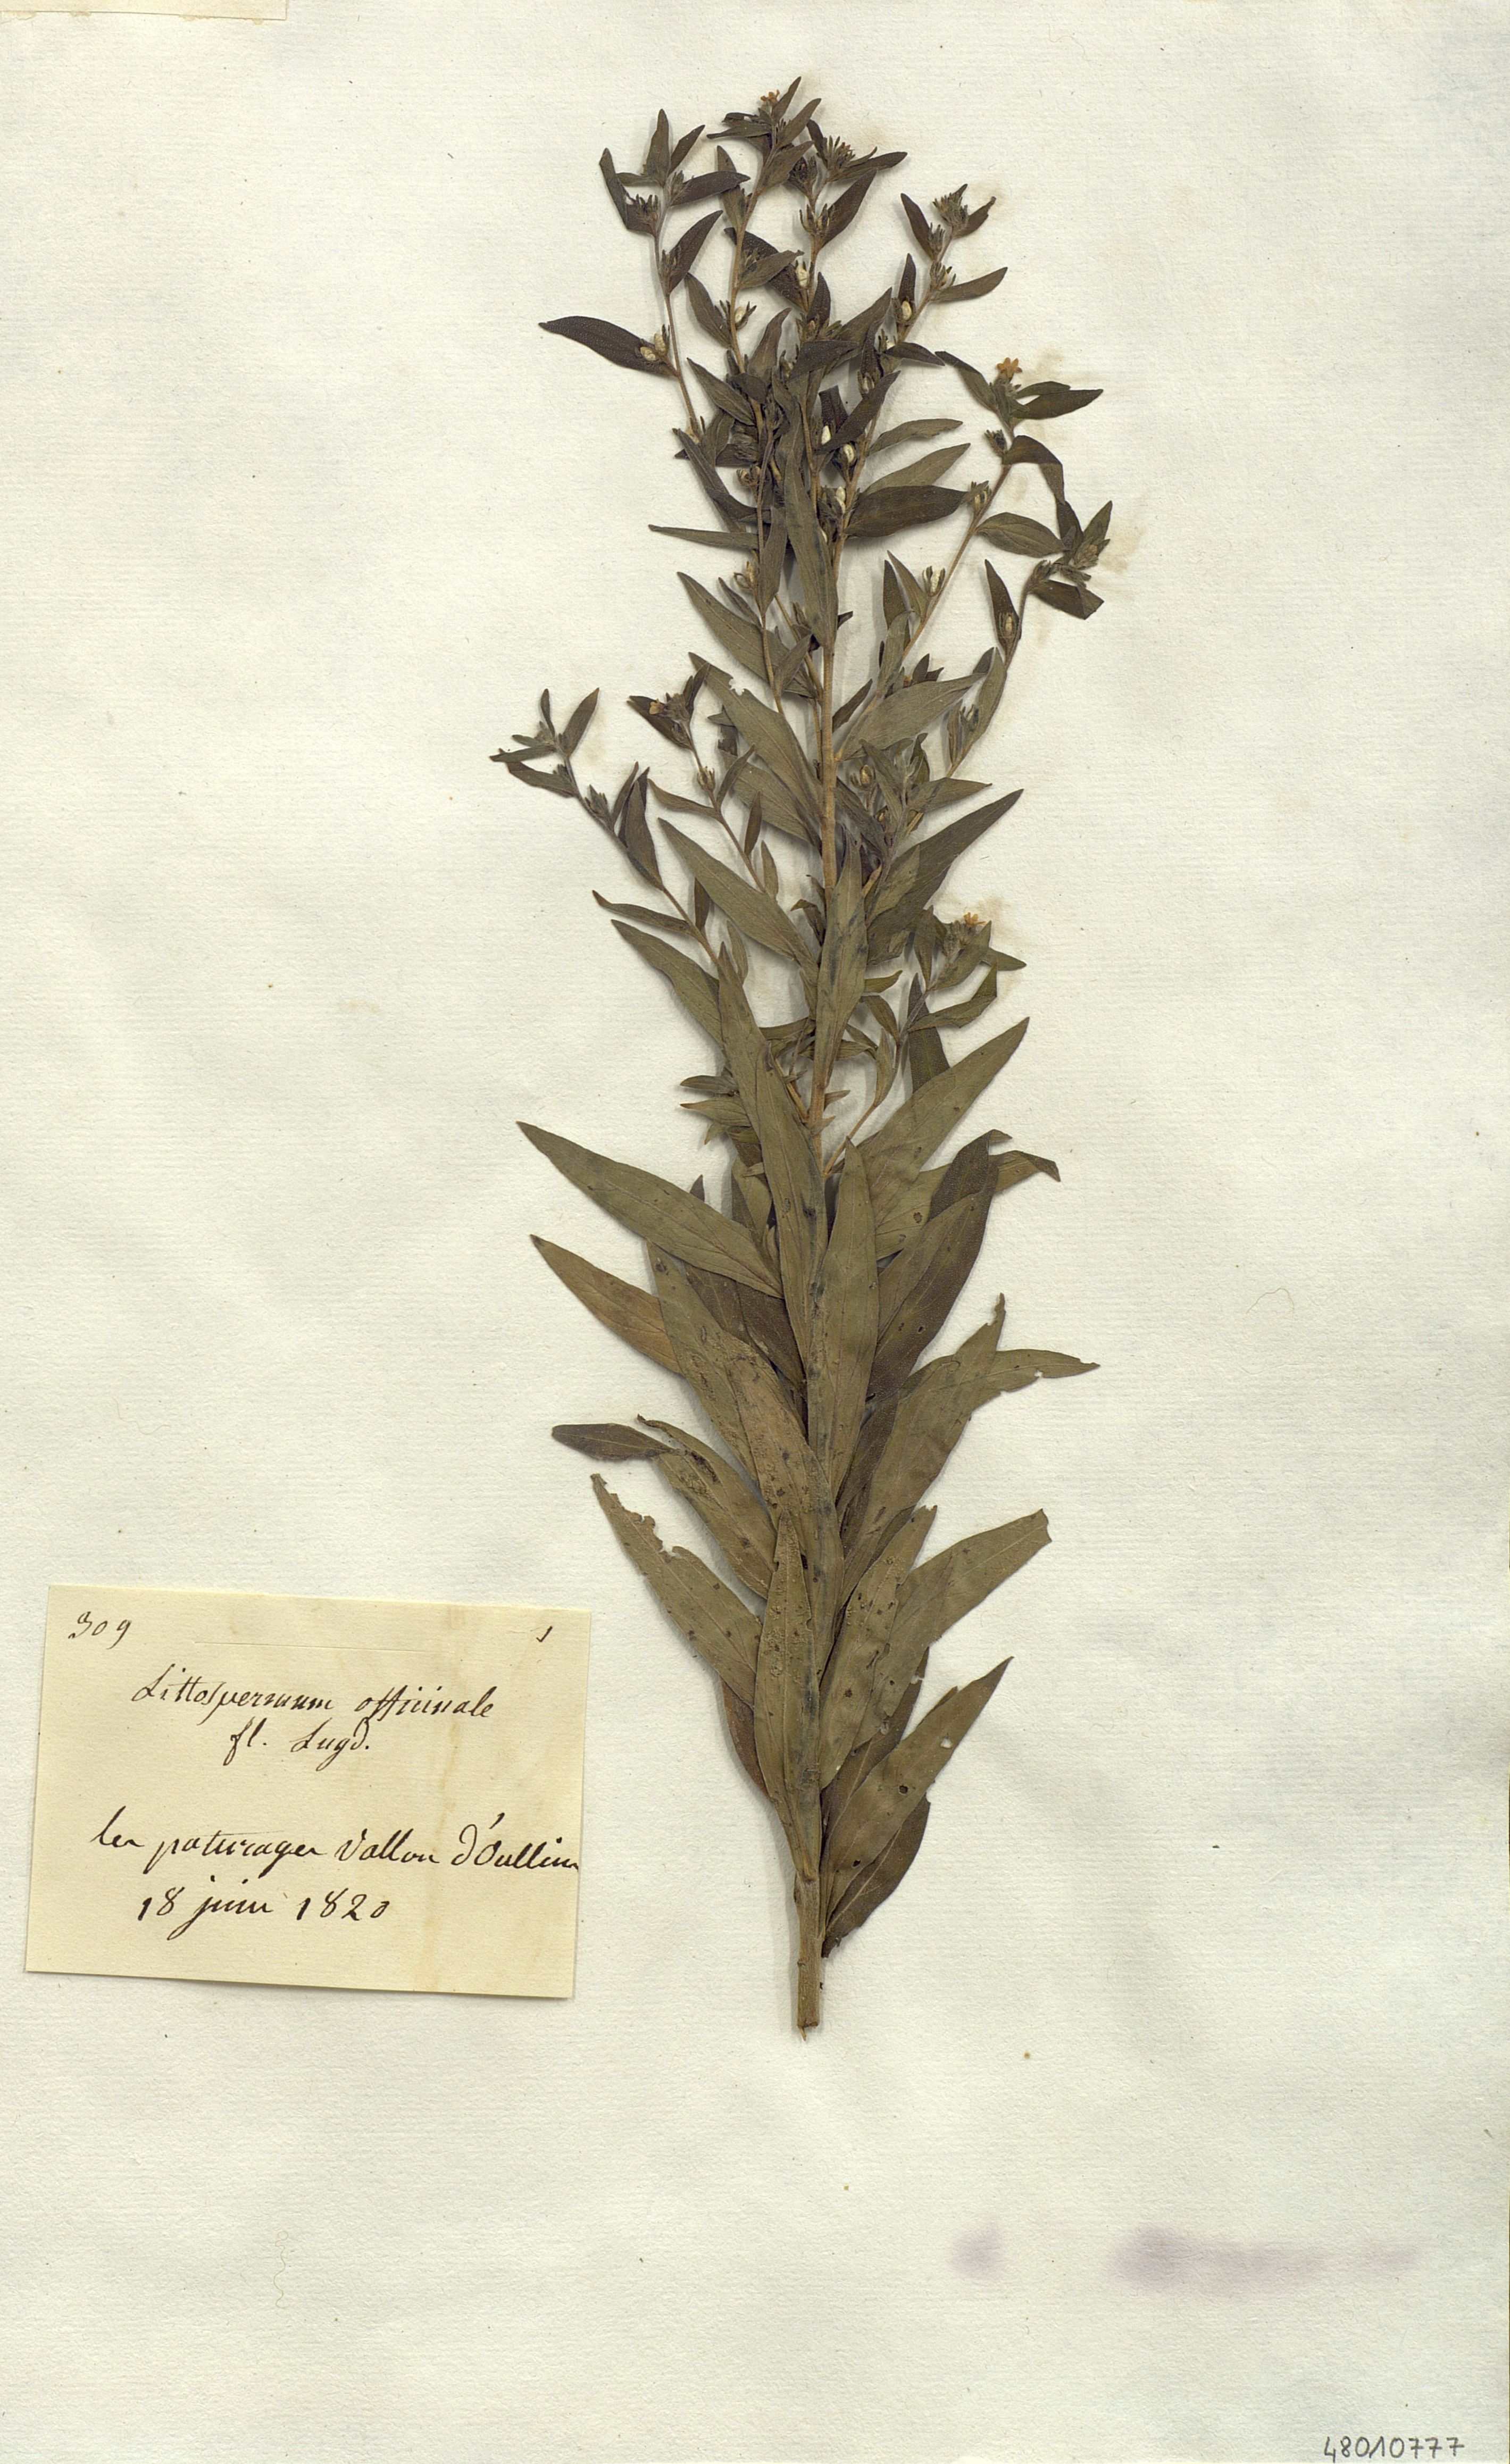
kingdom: Plantae
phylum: Tracheophyta
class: Magnoliopsida
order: Boraginales
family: Boraginaceae
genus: Lithospermum
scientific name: Lithospermum officinale
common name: Common gromwell
